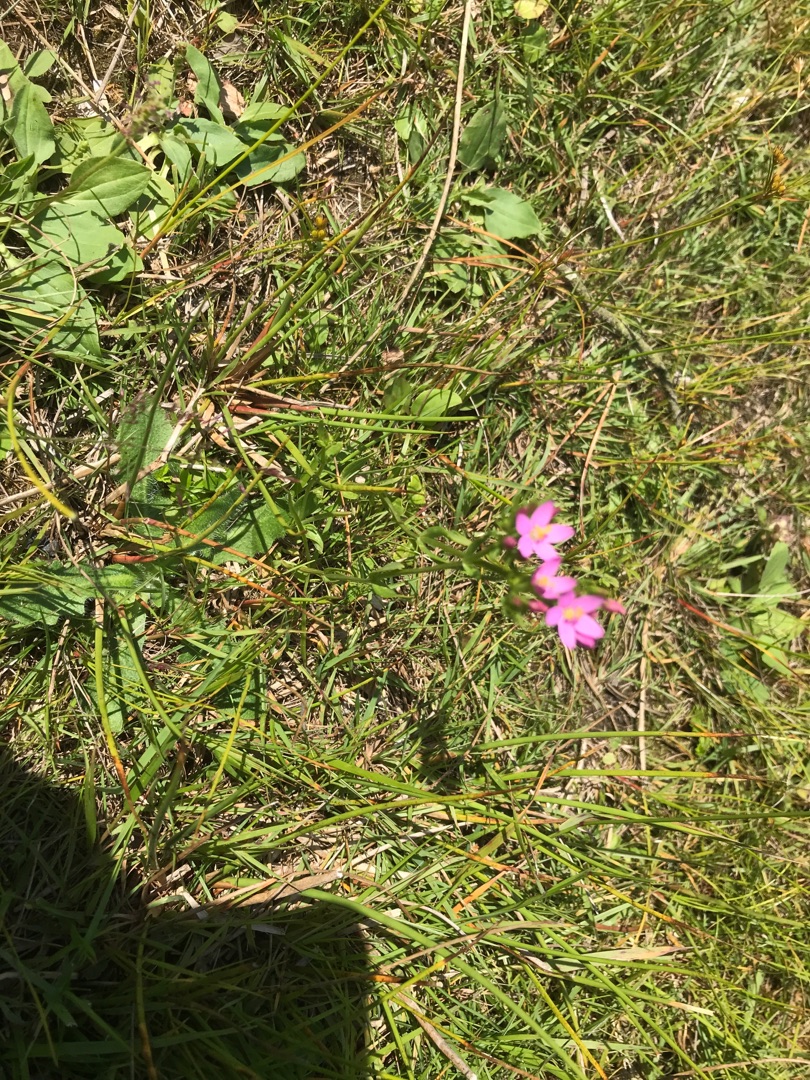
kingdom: Plantae
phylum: Tracheophyta
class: Magnoliopsida
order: Gentianales
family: Gentianaceae
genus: Centaurium
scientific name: Centaurium erythraea
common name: Mark-tusindgylden
